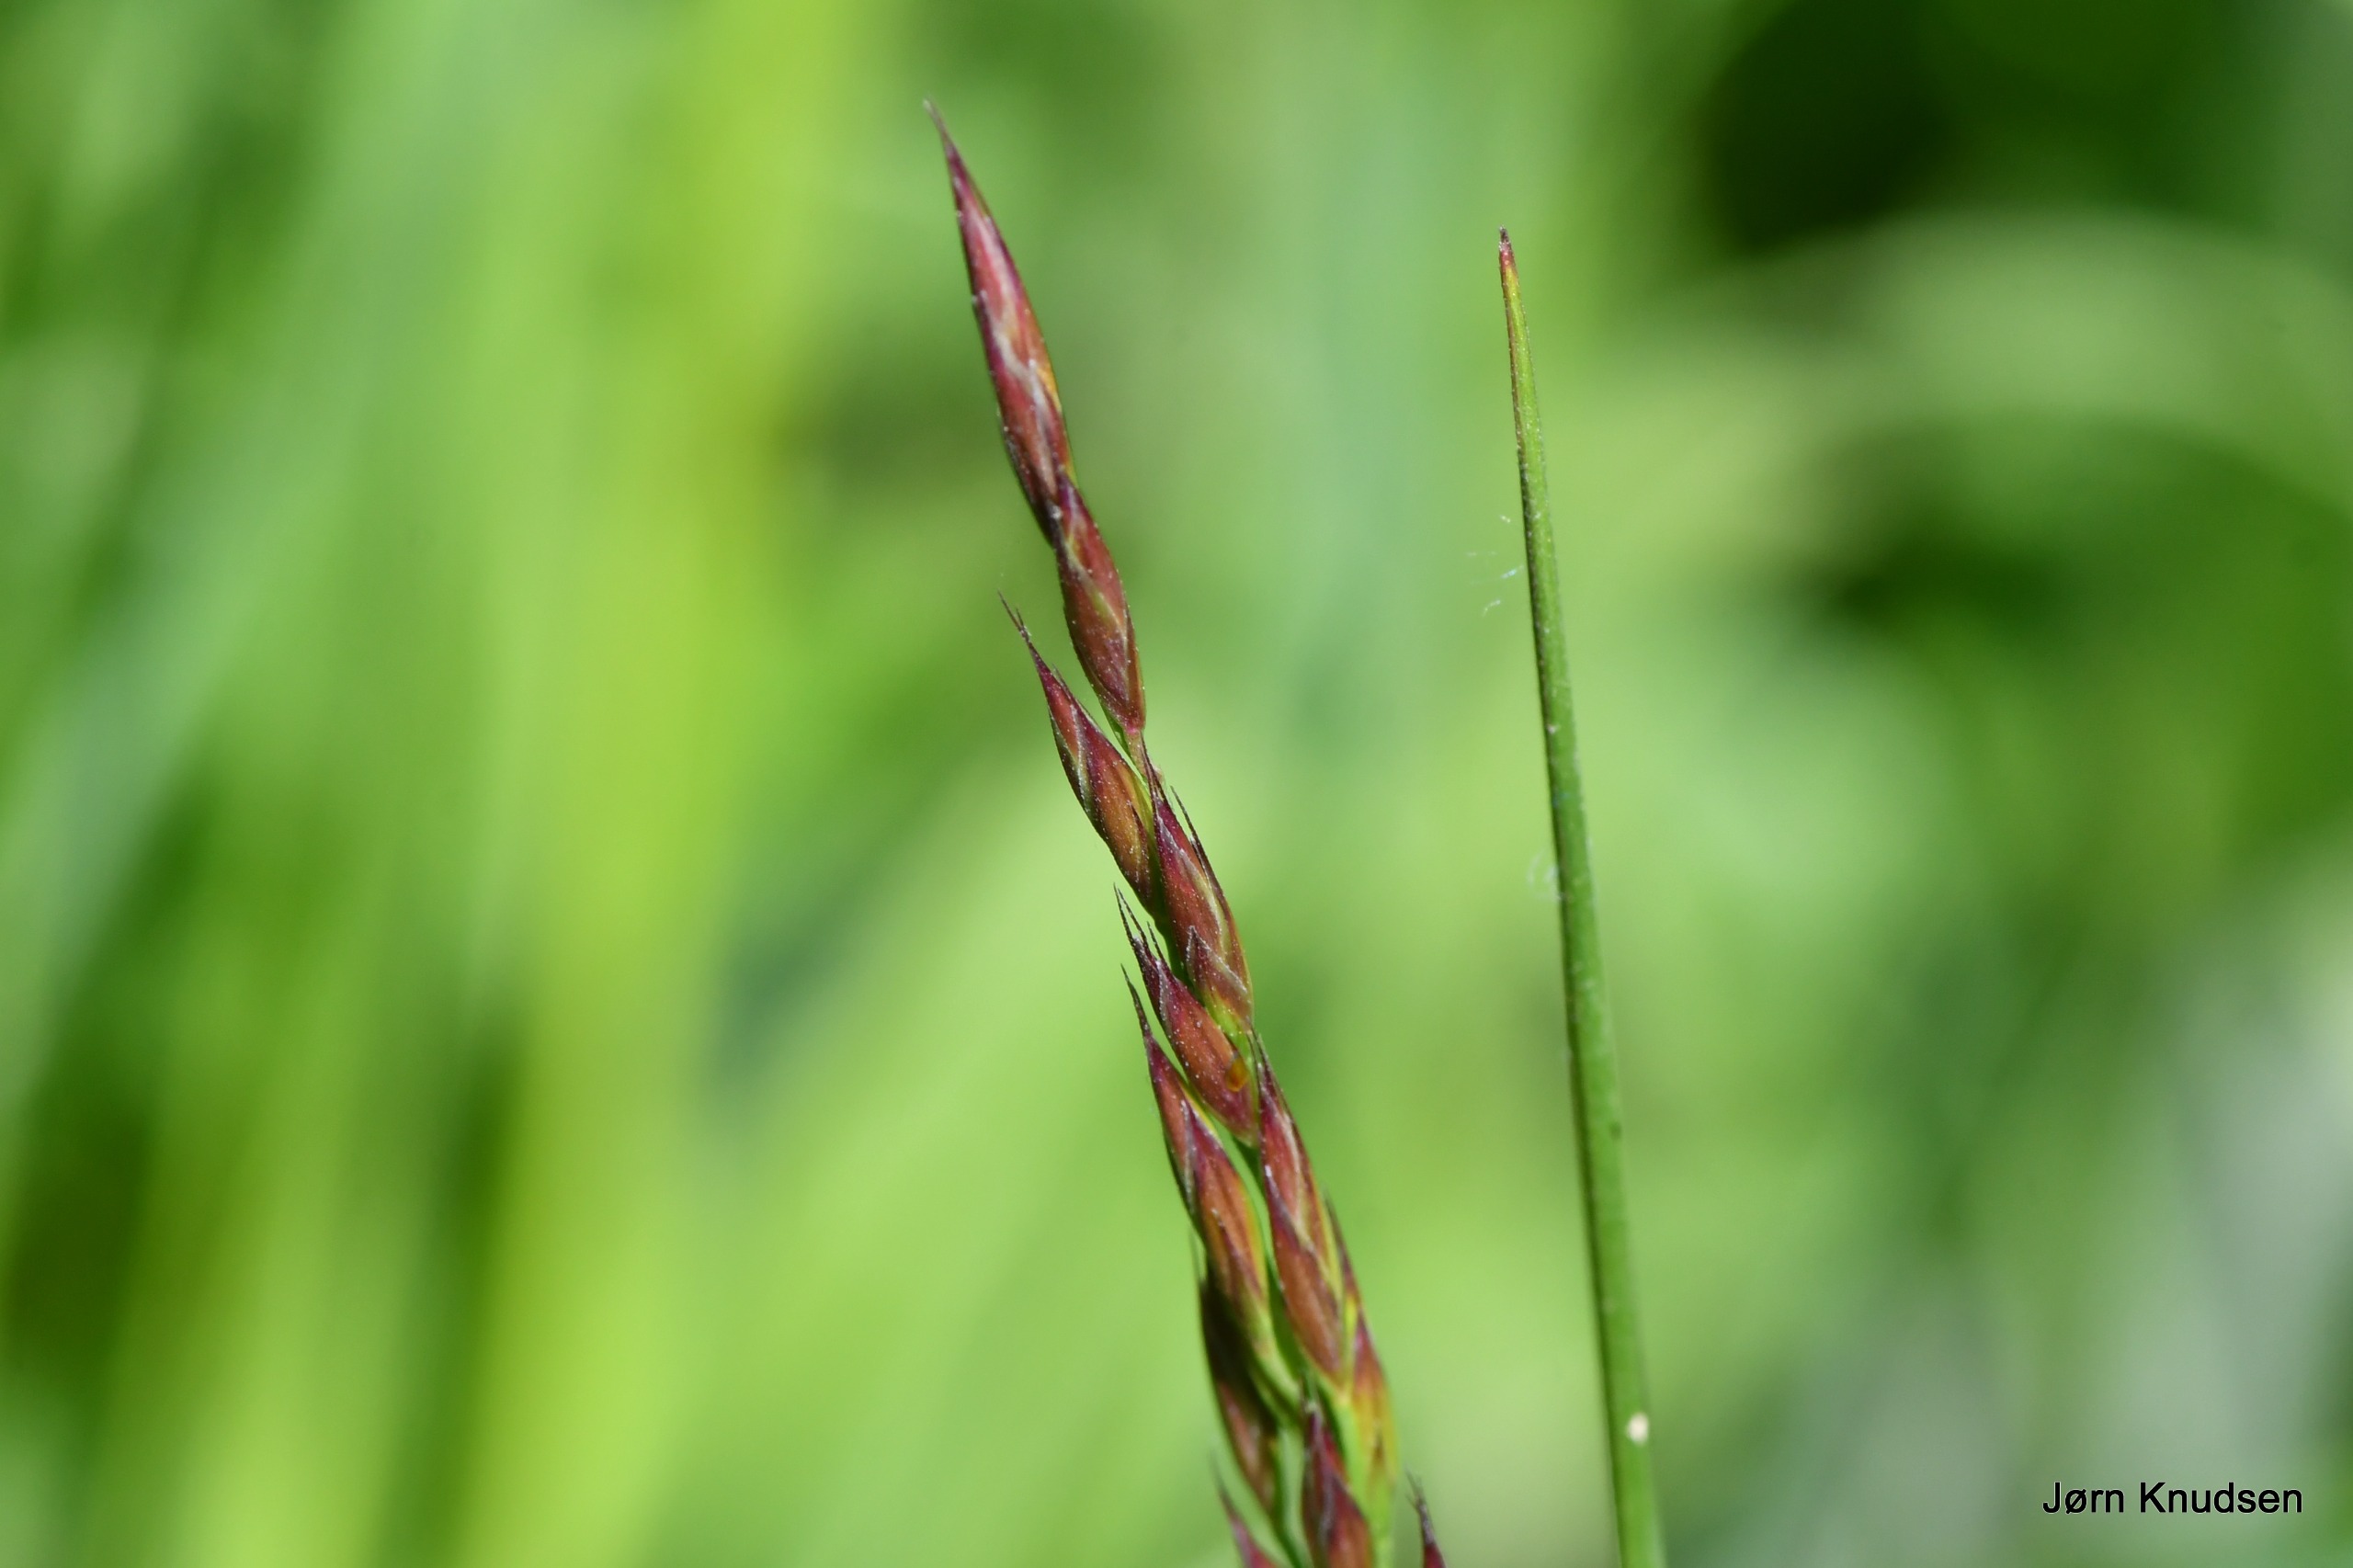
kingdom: Plantae
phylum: Tracheophyta
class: Liliopsida
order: Poales
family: Poaceae
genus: Festuca
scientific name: Festuca
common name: Svingelslægten
